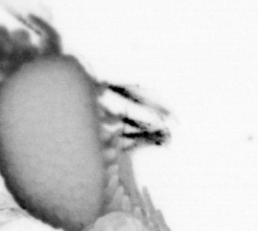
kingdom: Animalia
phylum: Annelida
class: Polychaeta
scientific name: Polychaeta
